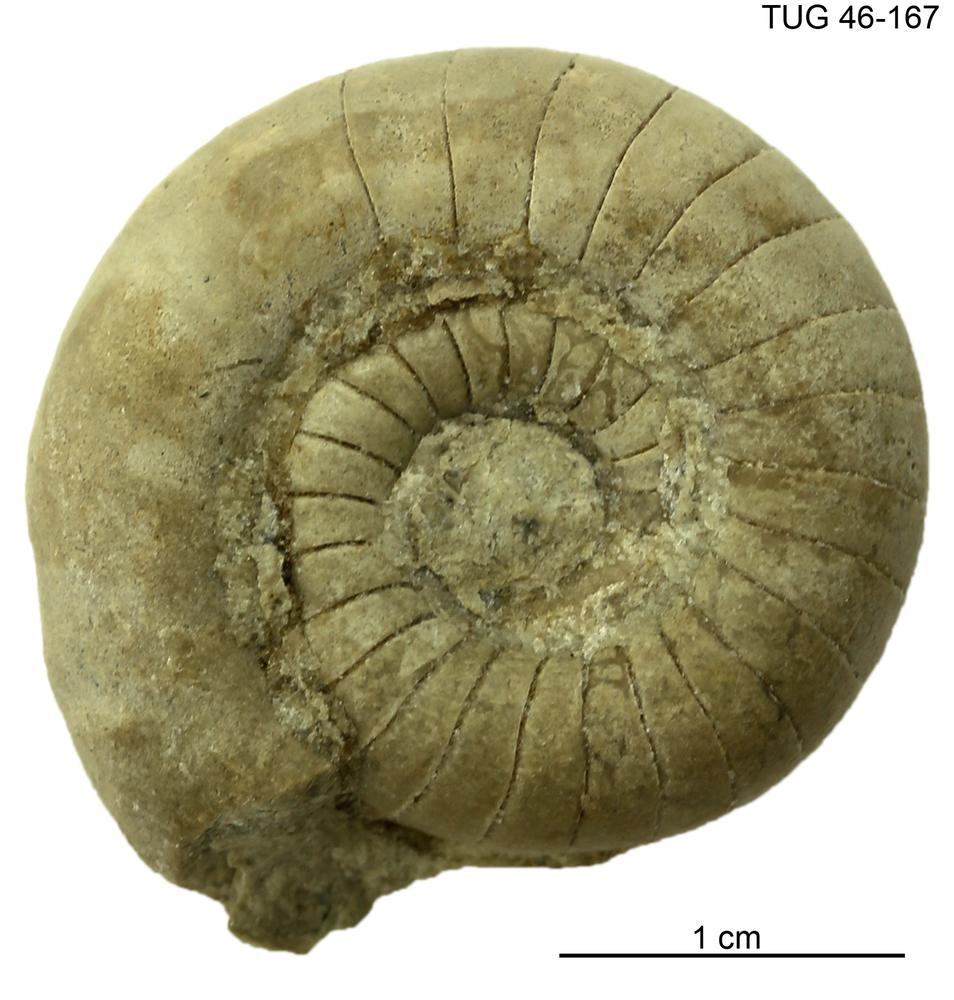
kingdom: Animalia
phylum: Mollusca
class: Cephalopoda
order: Nautilida
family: Nautilidae
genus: Cyrtoceras
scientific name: Cyrtoceras
